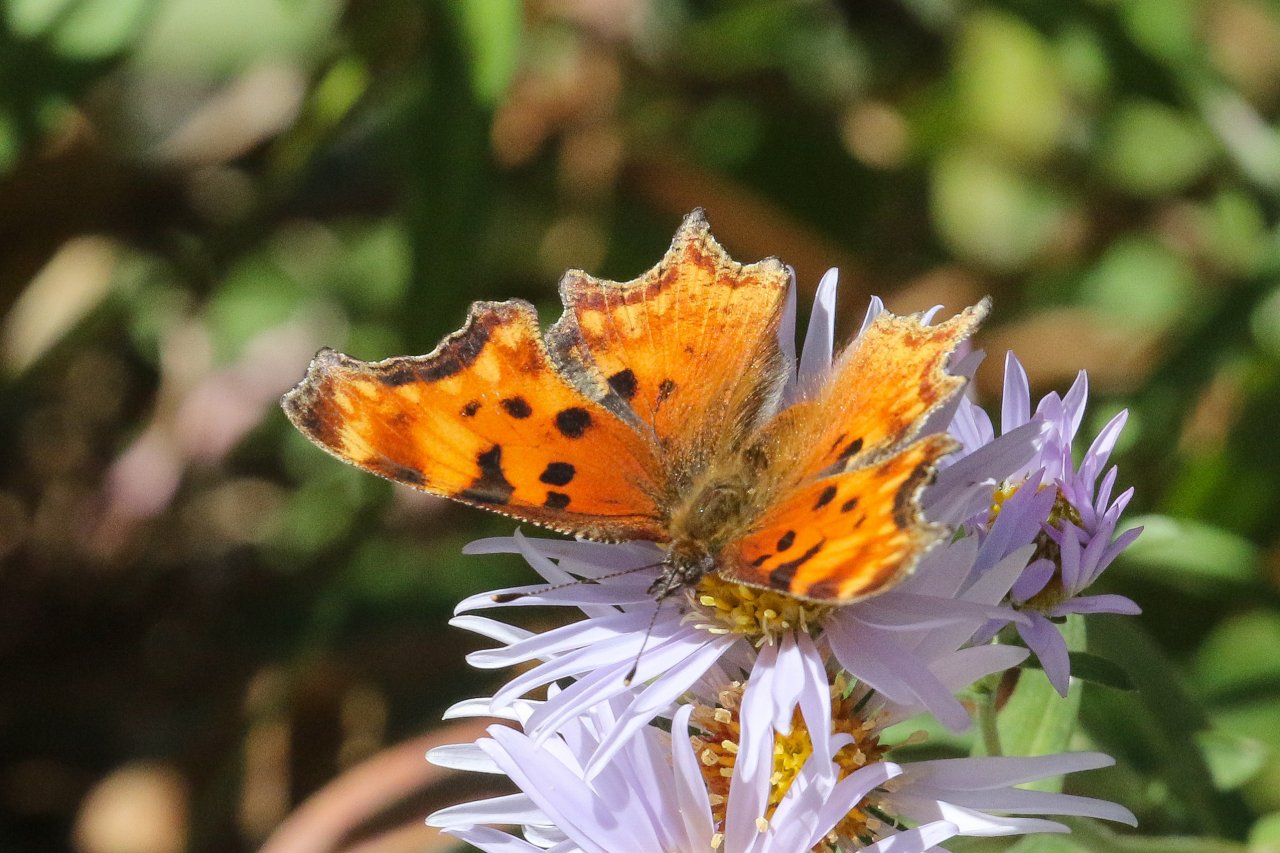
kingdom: Animalia
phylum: Arthropoda
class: Insecta
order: Lepidoptera
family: Nymphalidae
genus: Polygonia
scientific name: Polygonia faunus
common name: Green Comma
